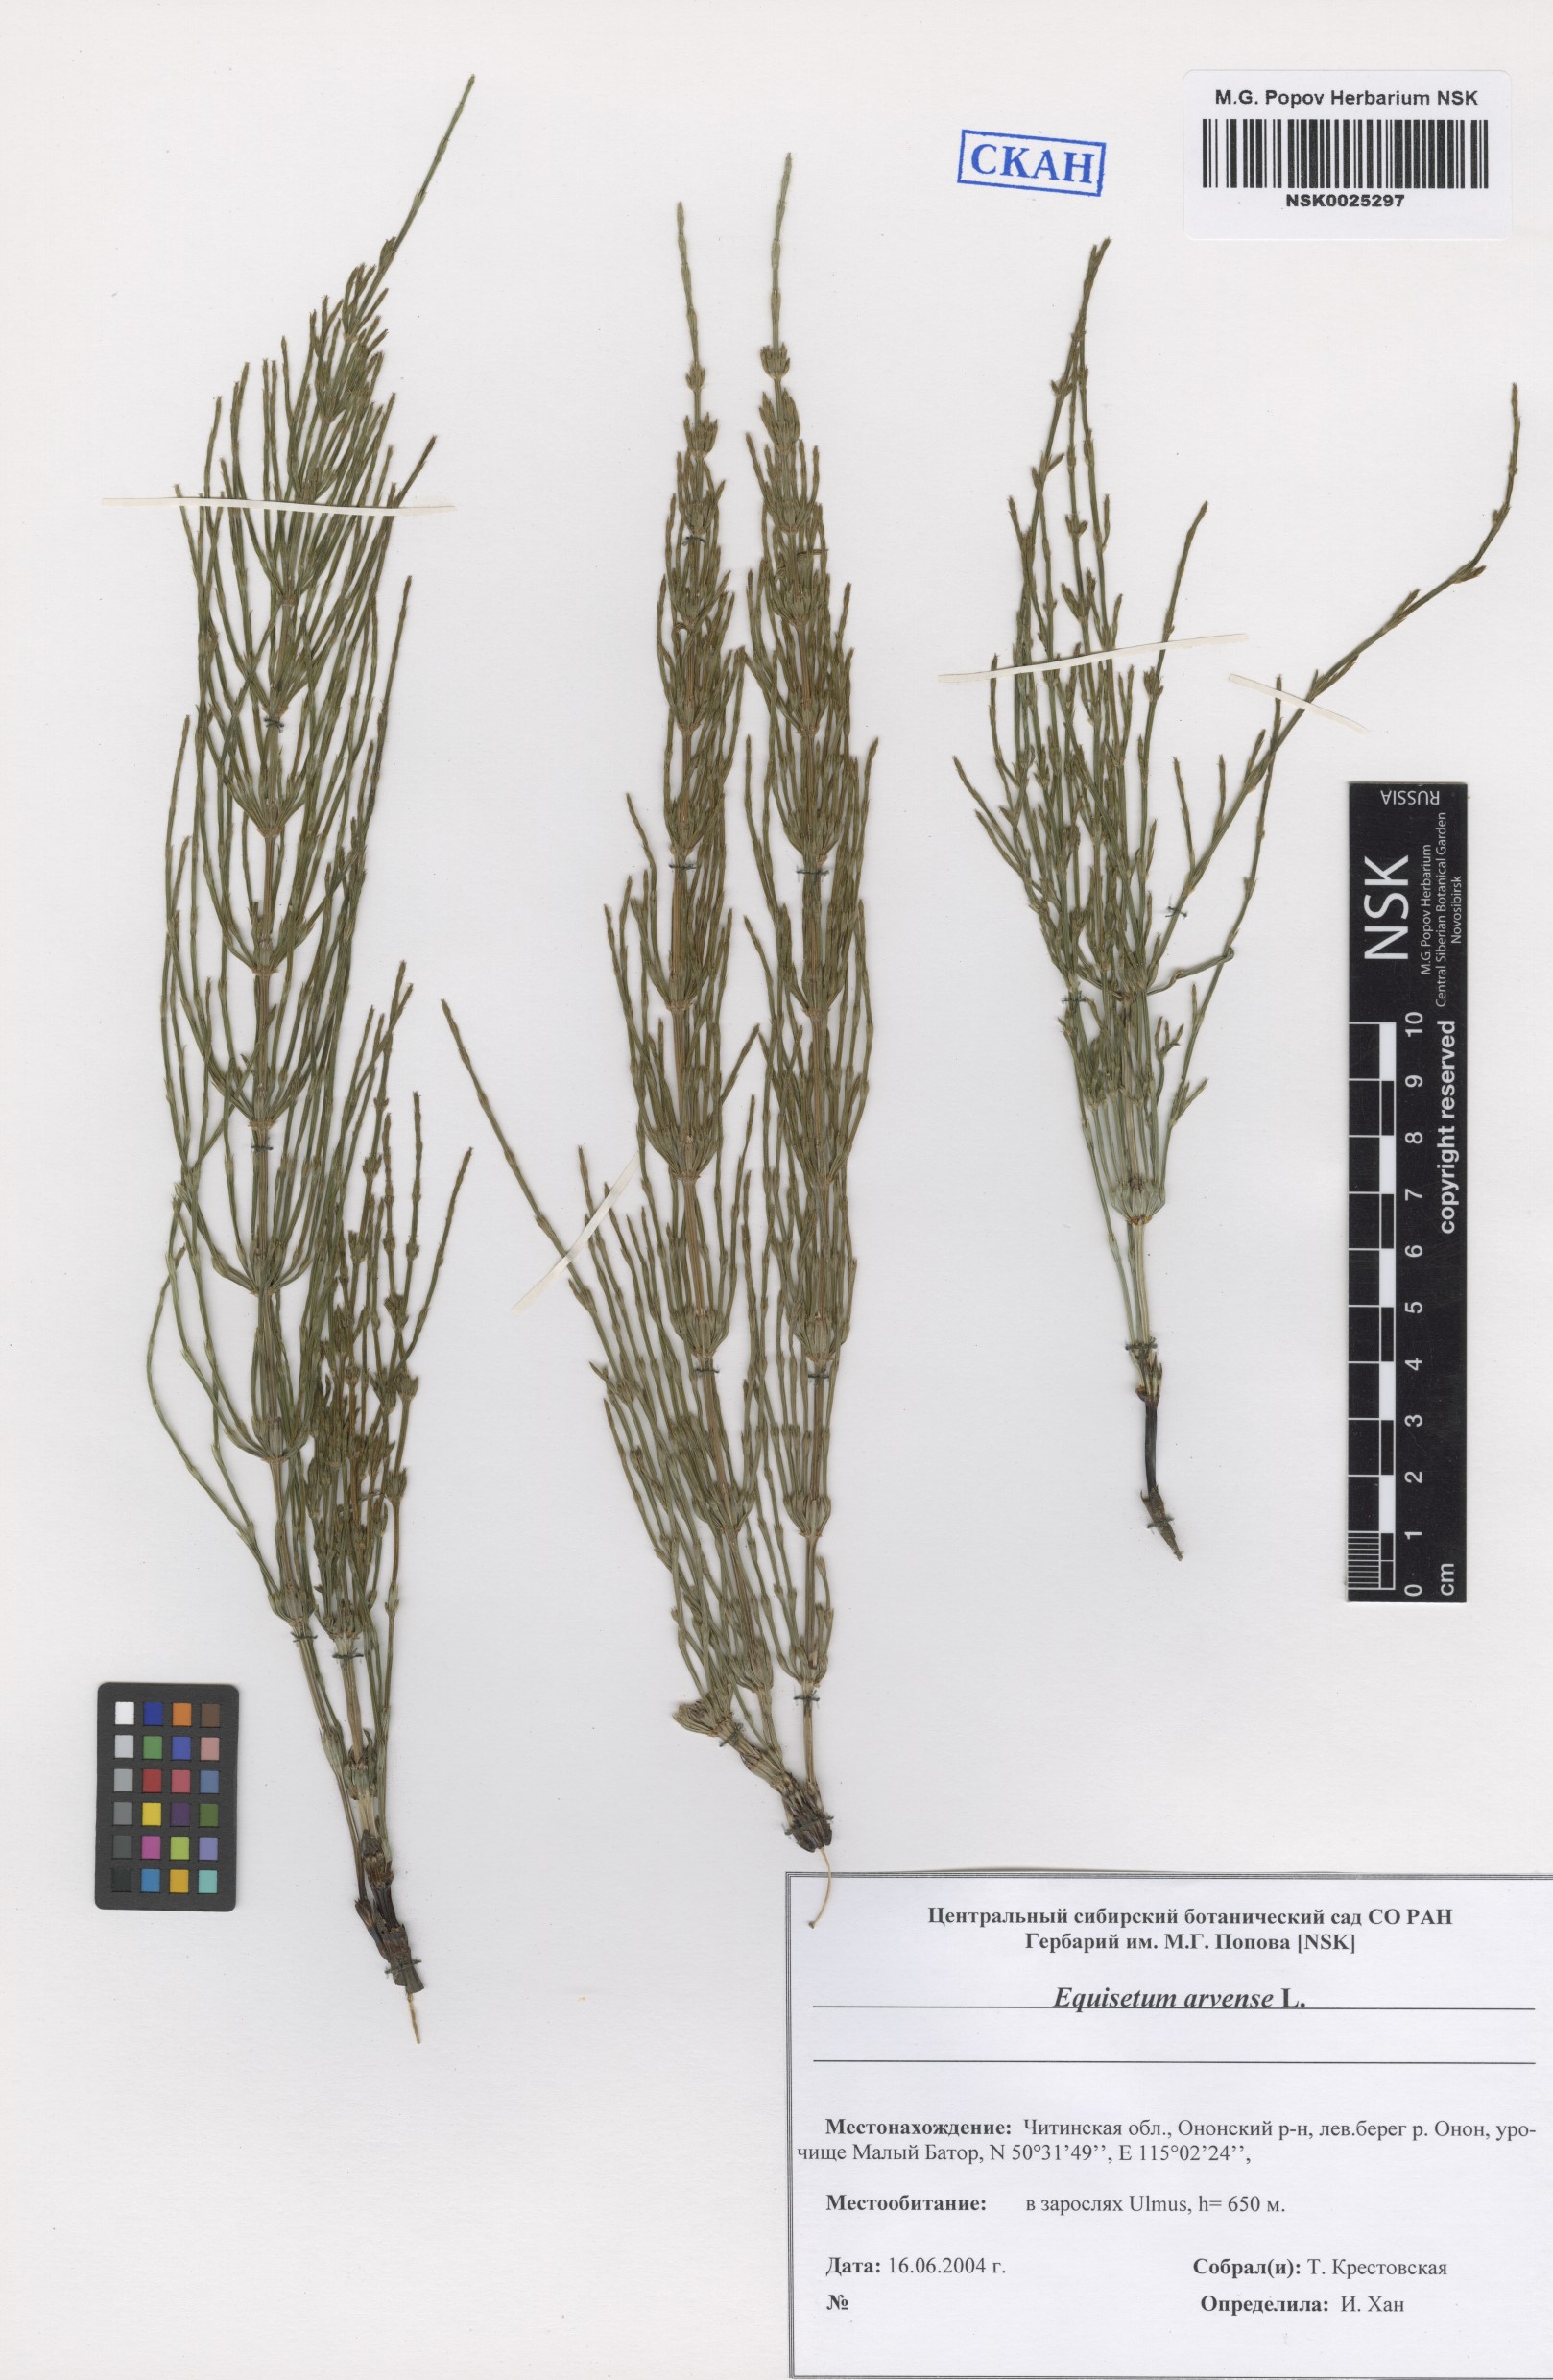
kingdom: Plantae
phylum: Tracheophyta
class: Polypodiopsida
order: Equisetales
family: Equisetaceae
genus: Equisetum
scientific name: Equisetum arvense
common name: Field horsetail
